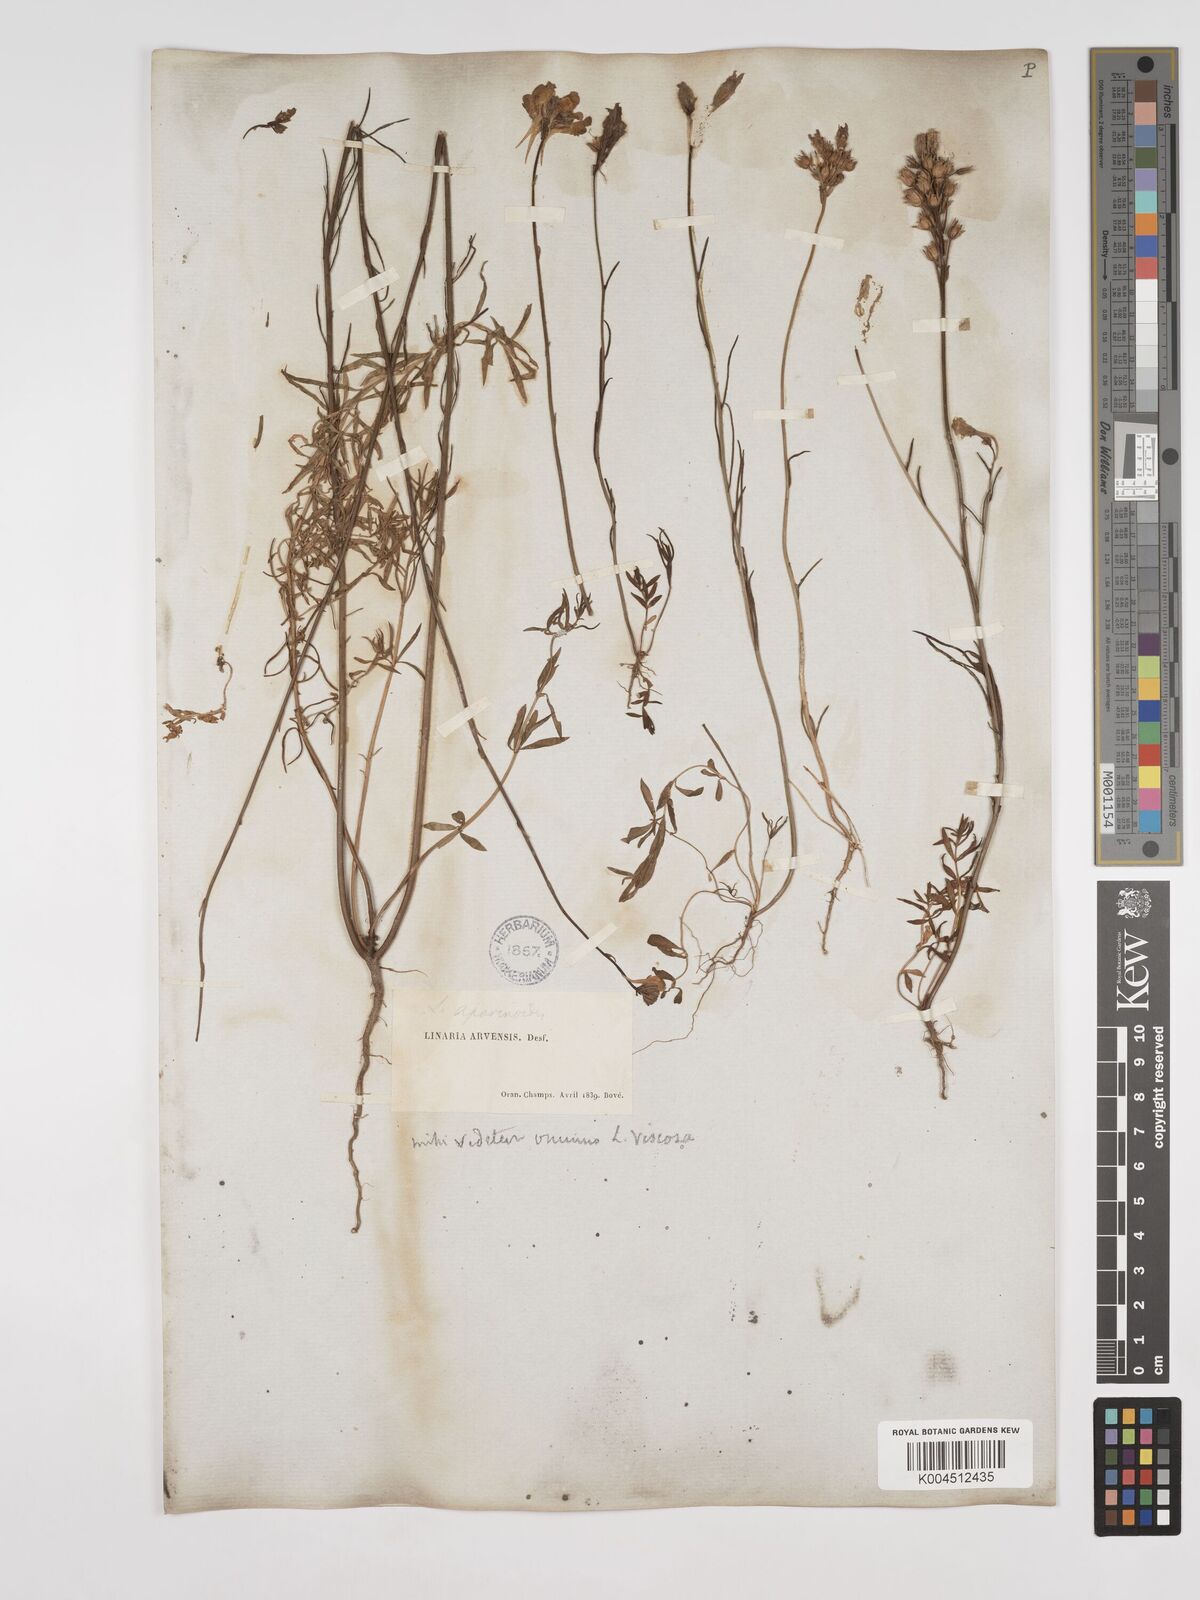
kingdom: Plantae
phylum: Tracheophyta
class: Magnoliopsida
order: Lamiales
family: Plantaginaceae
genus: Linaria
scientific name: Linaria multicaulis
